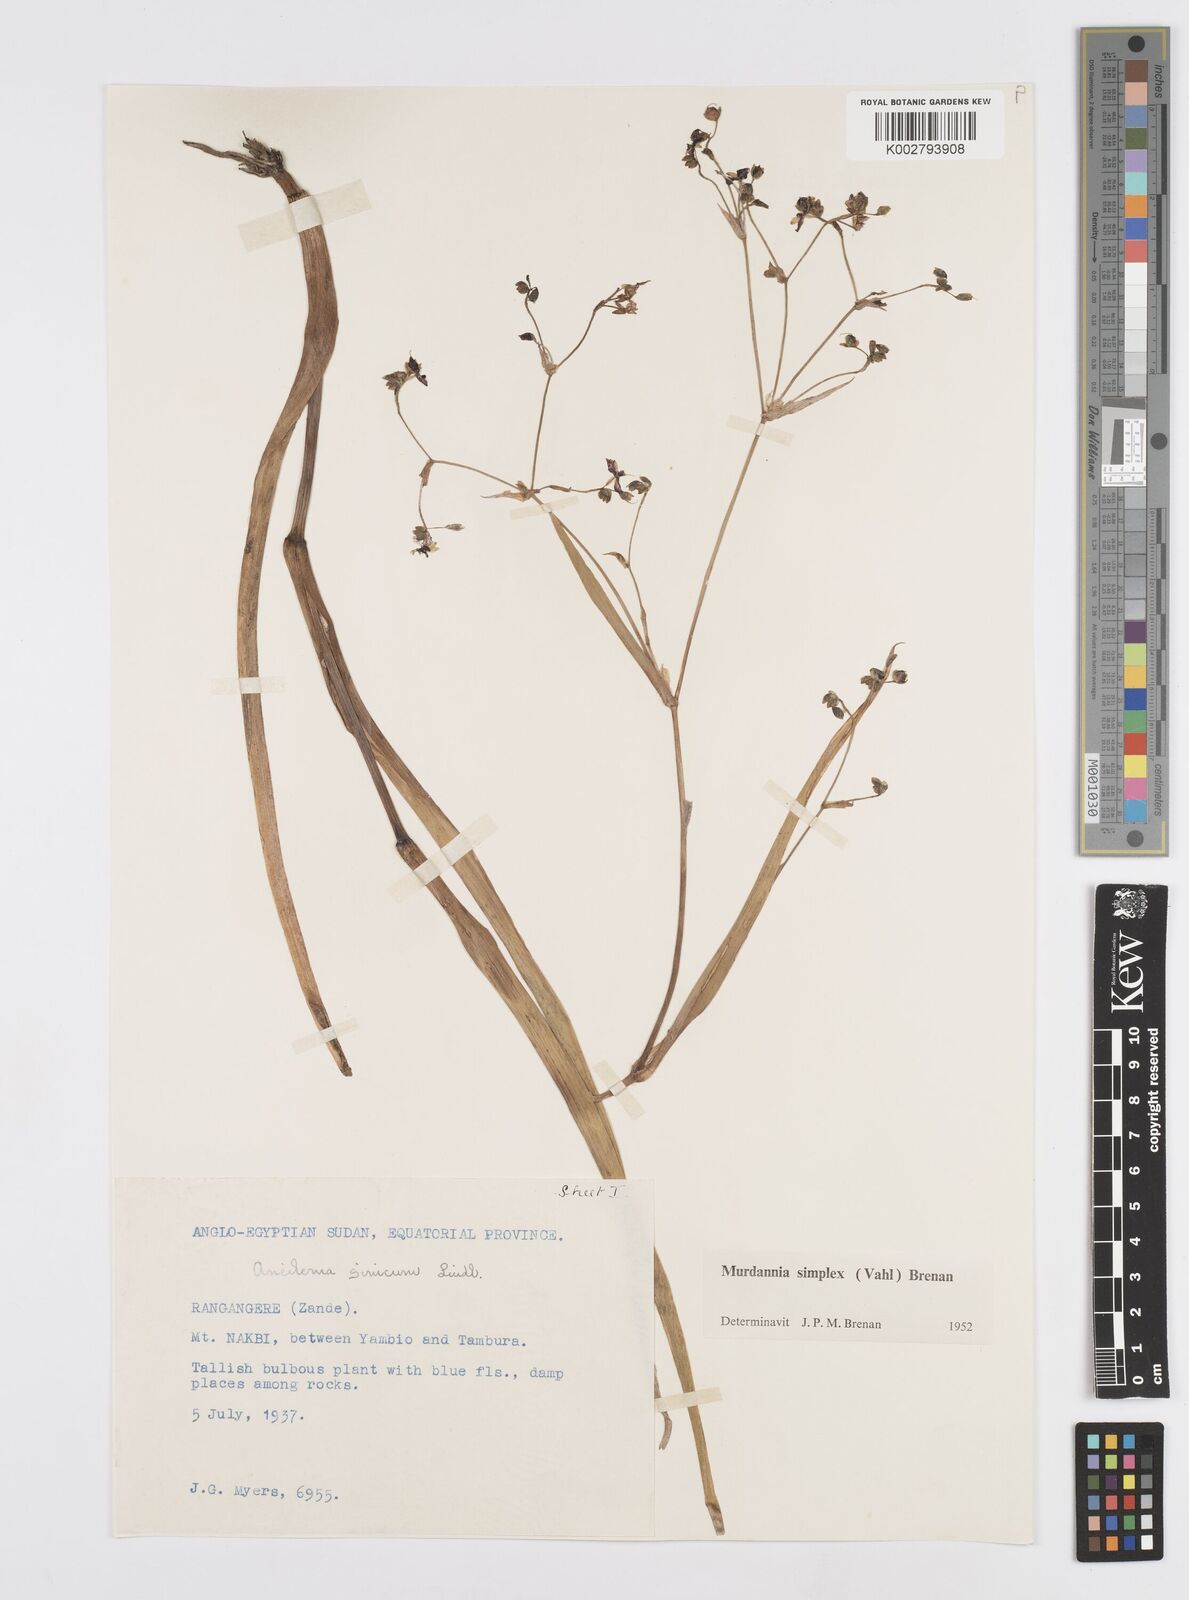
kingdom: Plantae
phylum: Tracheophyta
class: Liliopsida
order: Commelinales
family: Commelinaceae
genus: Murdannia
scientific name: Murdannia simplex
